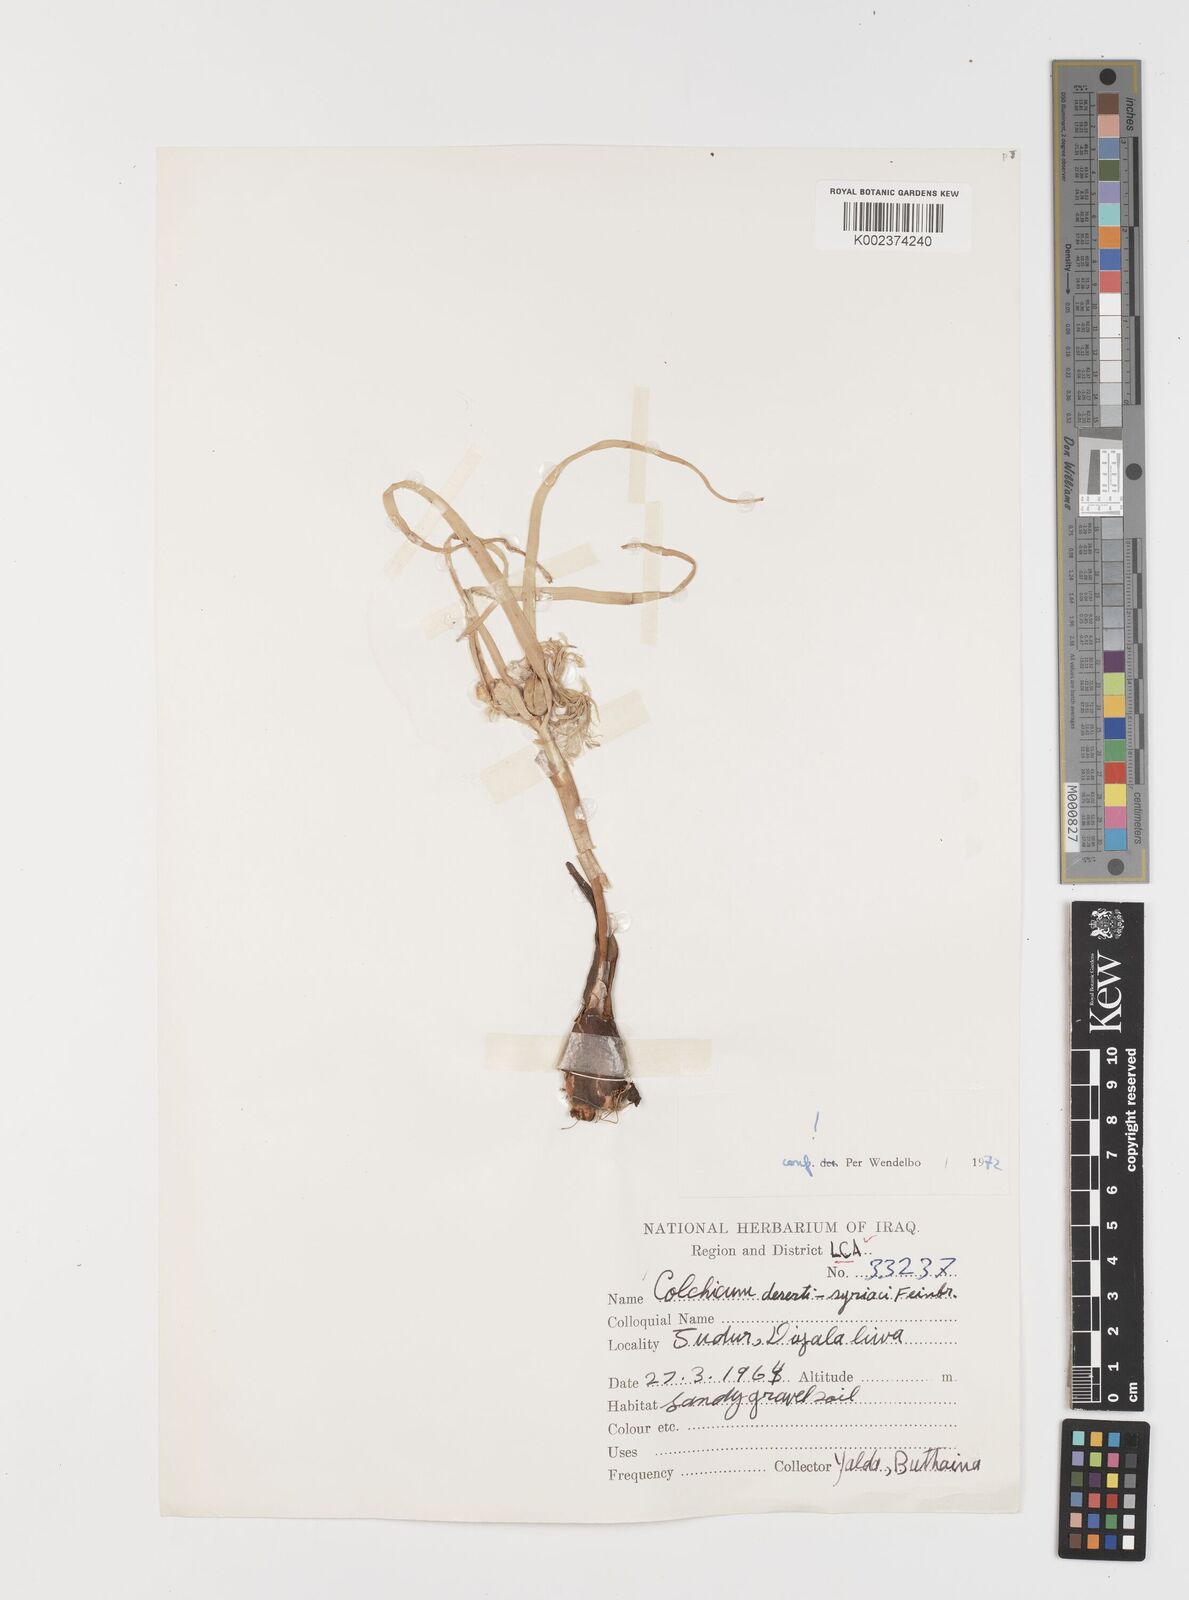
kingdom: Plantae
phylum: Tracheophyta
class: Liliopsida
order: Liliales
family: Colchicaceae
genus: Colchicum
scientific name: Colchicum schimperi
